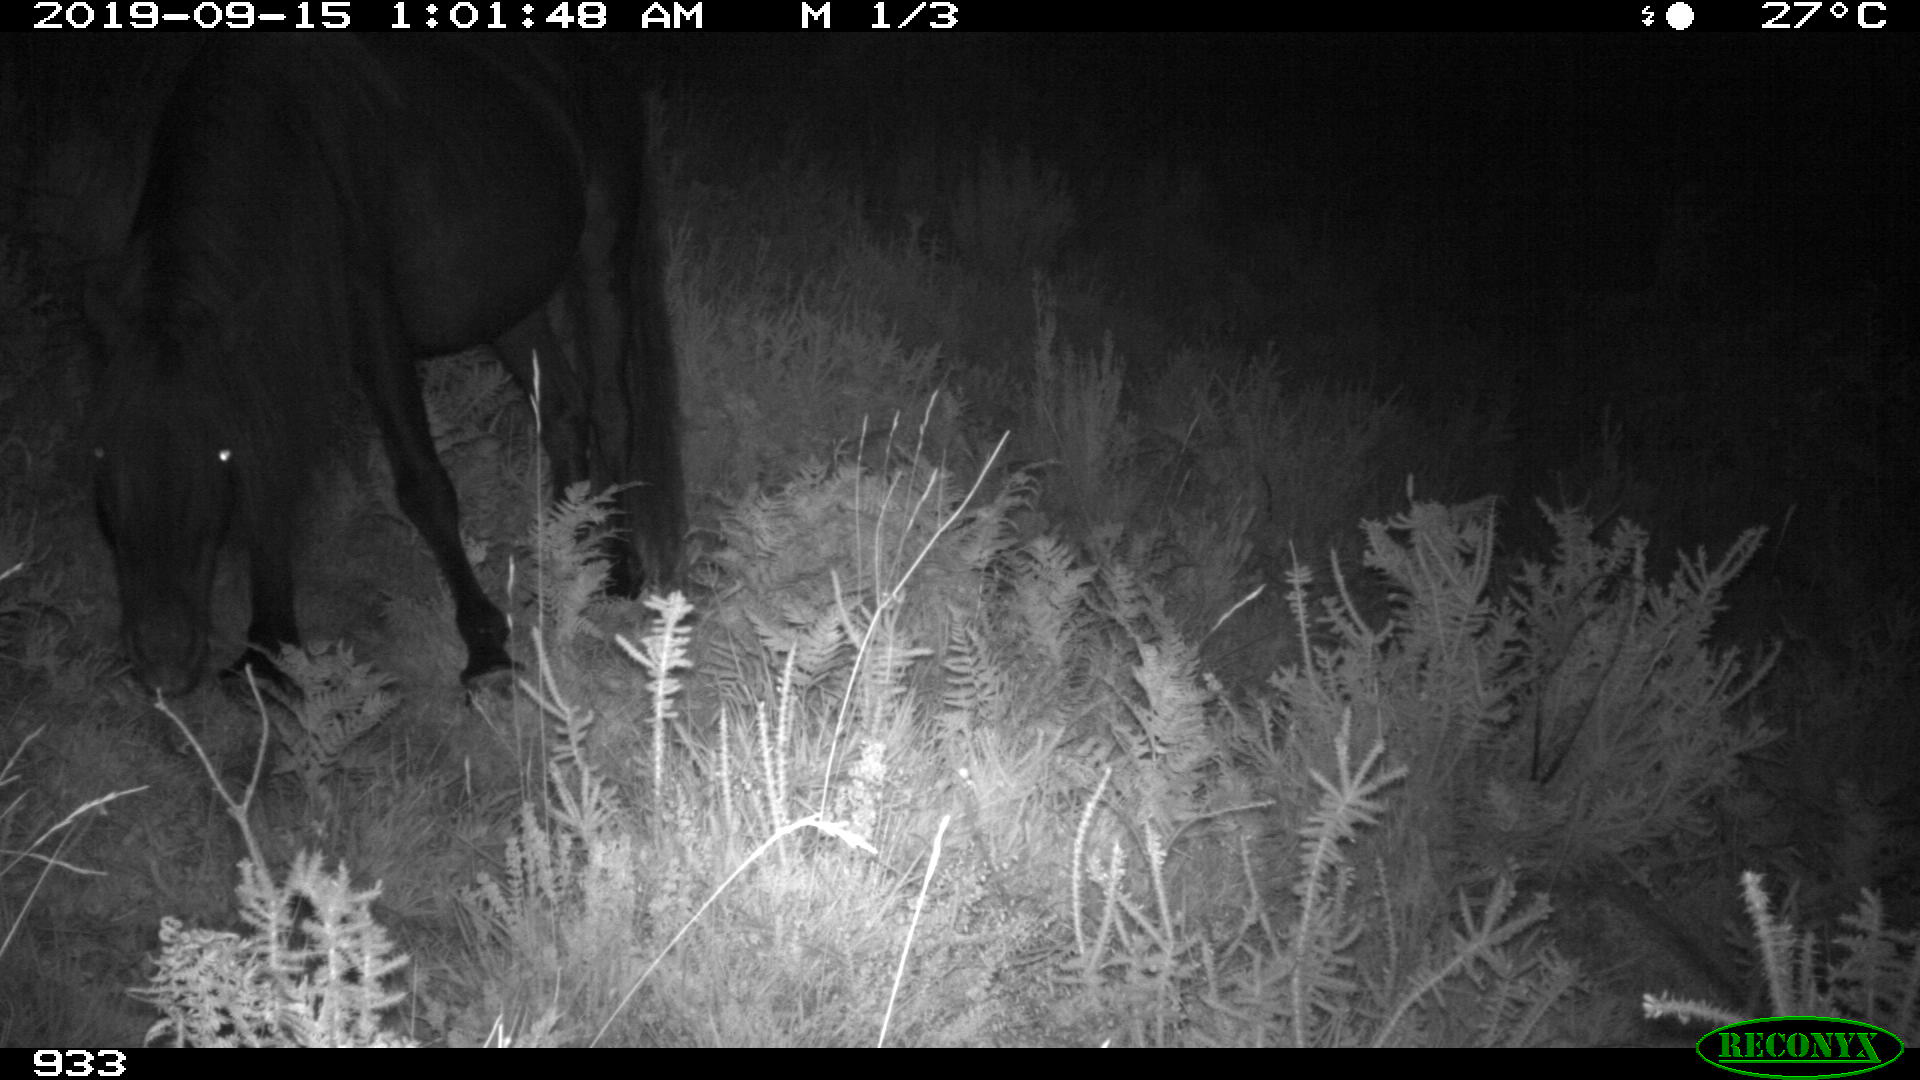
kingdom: Animalia
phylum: Chordata
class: Mammalia
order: Perissodactyla
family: Equidae
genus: Equus
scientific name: Equus caballus
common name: Horse
